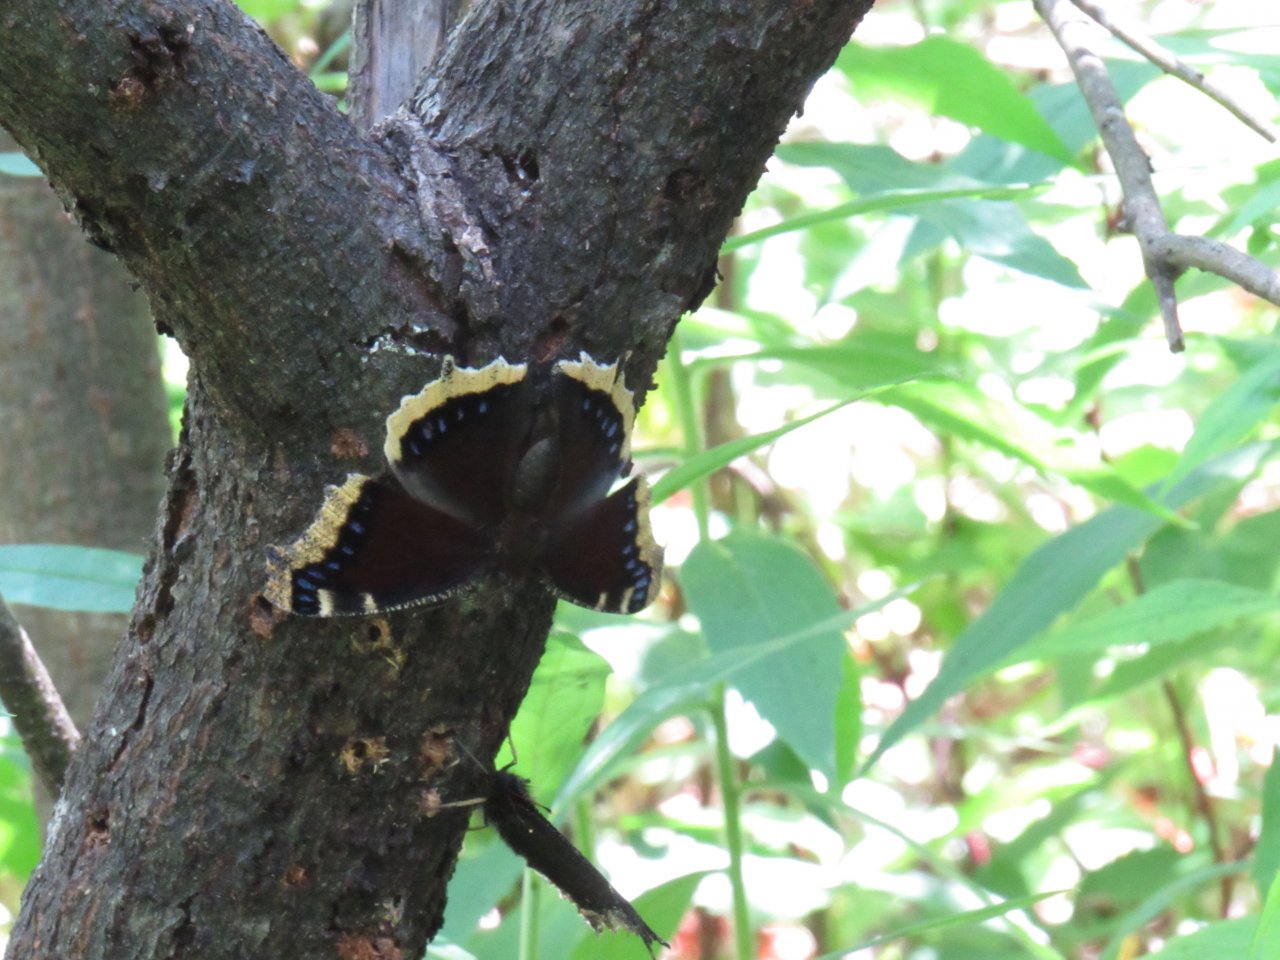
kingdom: Animalia
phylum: Arthropoda
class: Insecta
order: Lepidoptera
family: Nymphalidae
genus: Nymphalis
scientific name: Nymphalis antiopa
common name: Mourning Cloak
